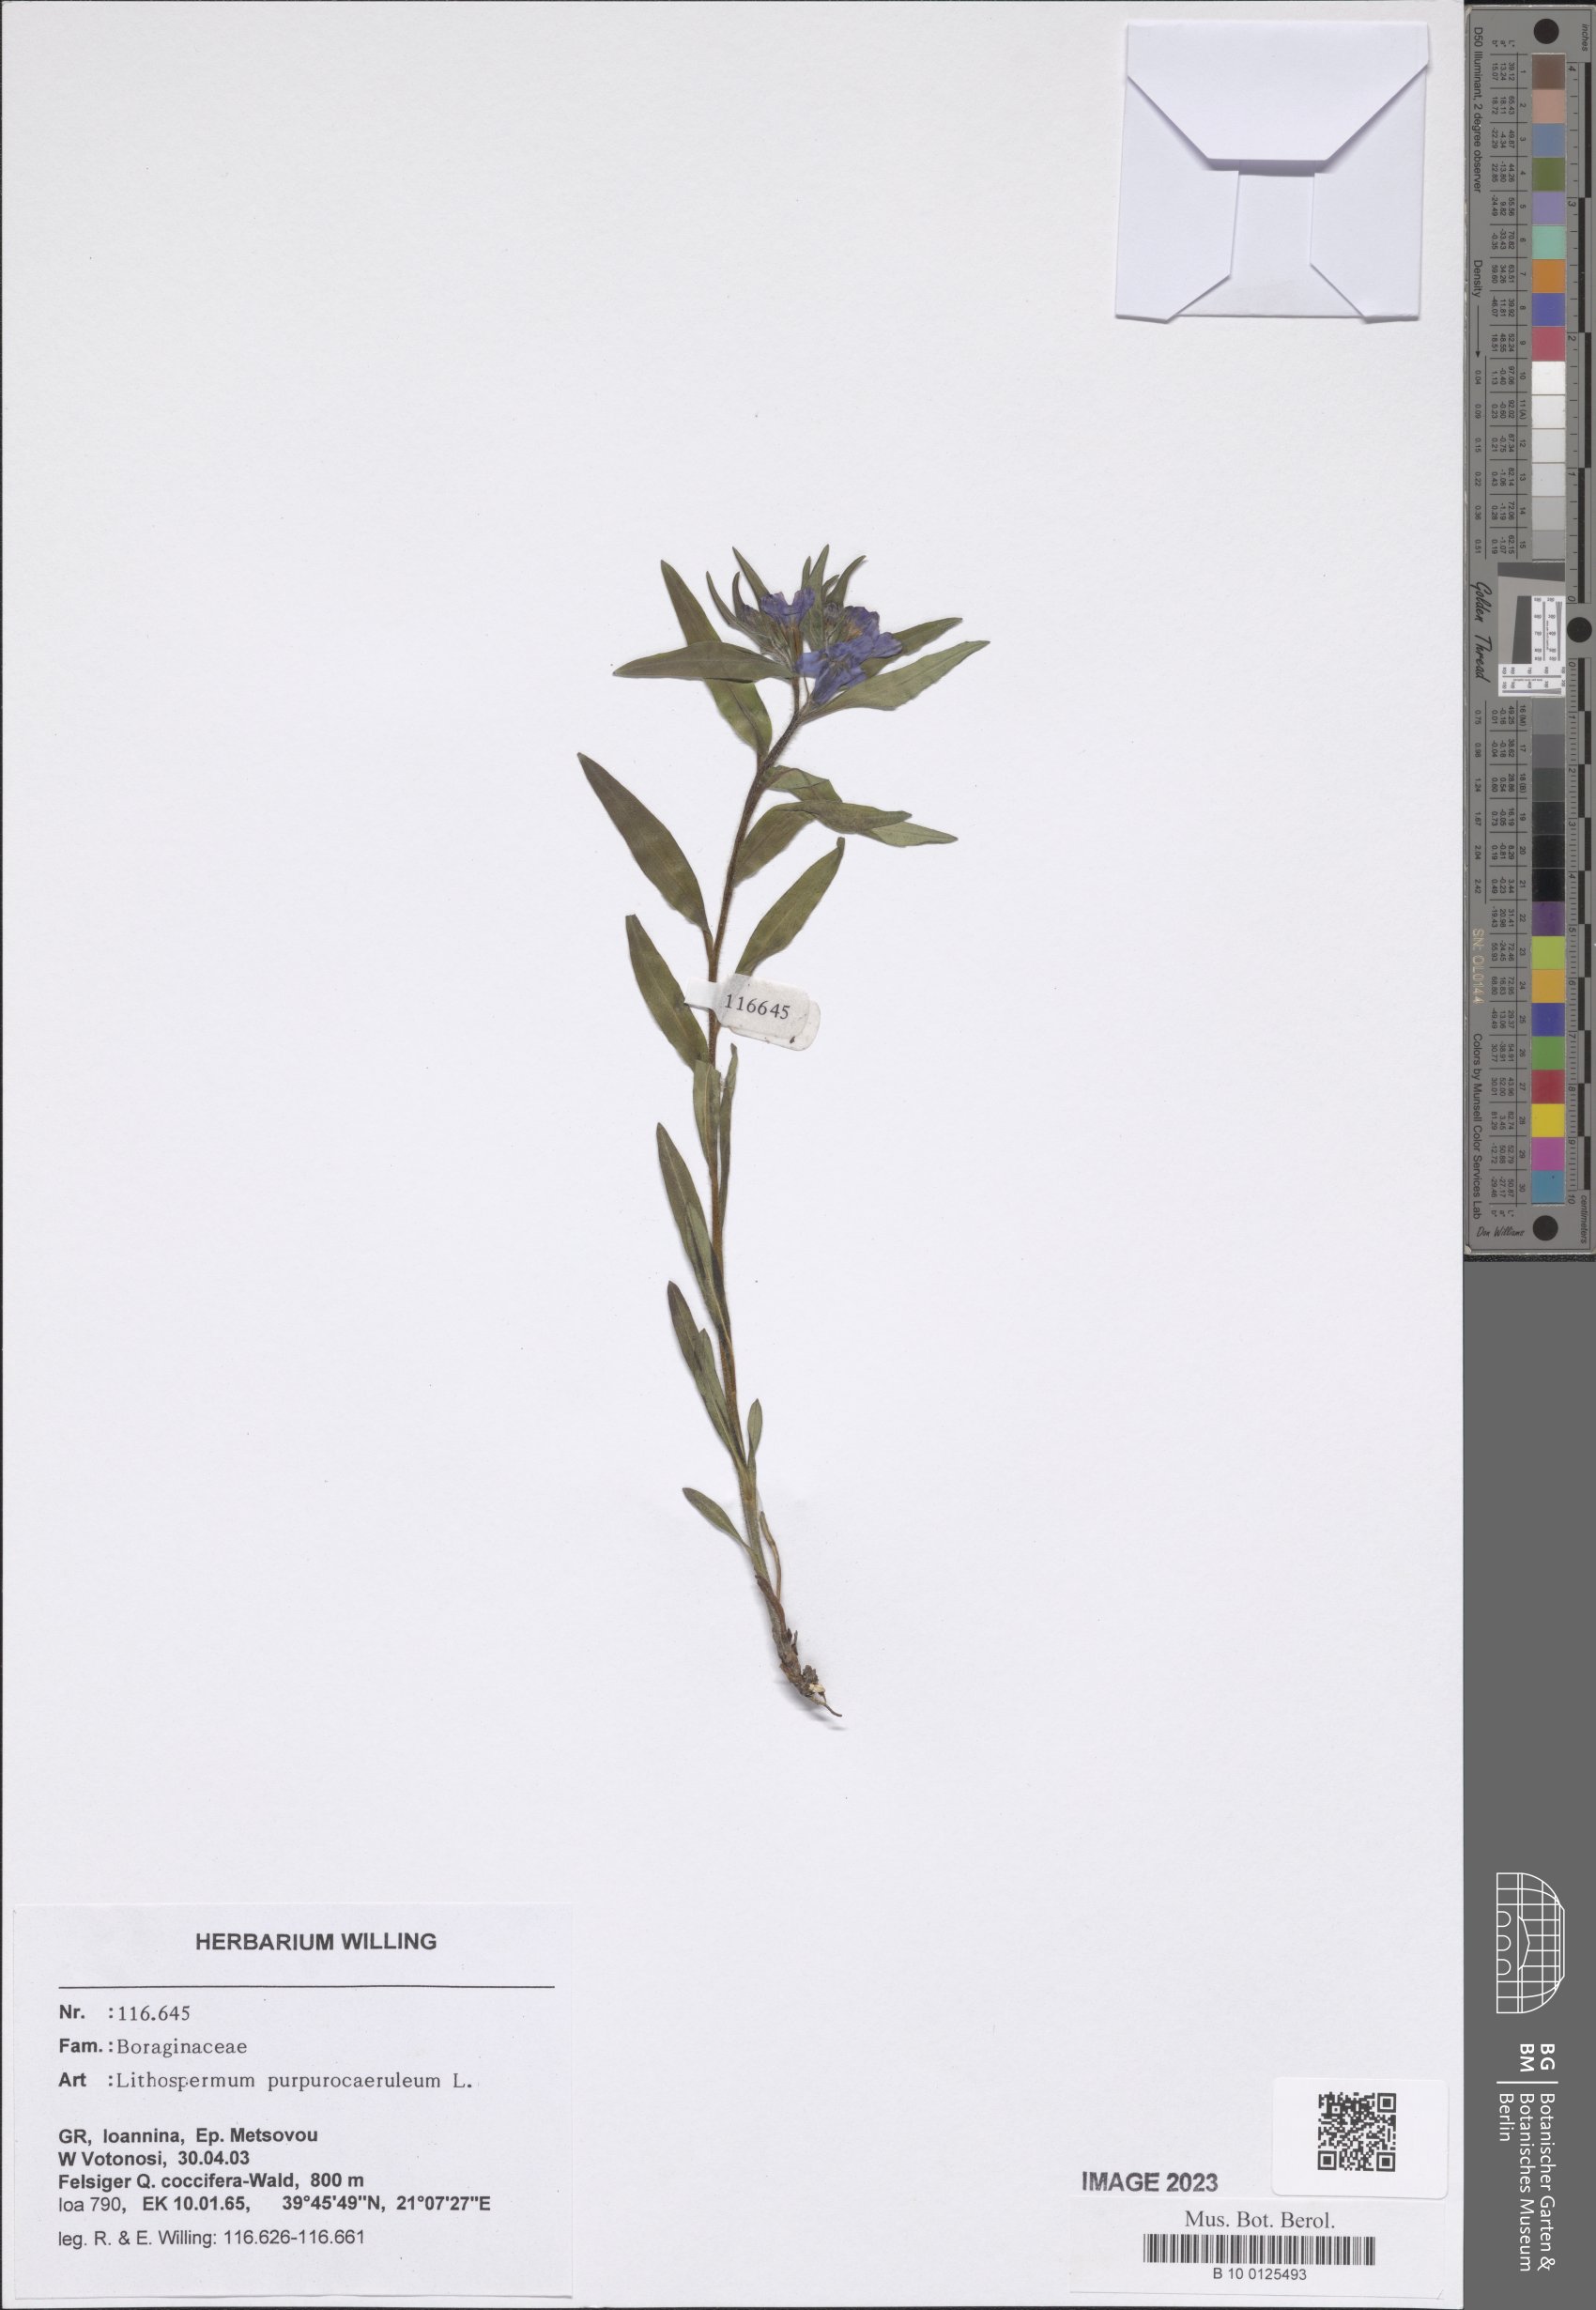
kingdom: Plantae
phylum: Tracheophyta
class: Magnoliopsida
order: Boraginales
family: Boraginaceae
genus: Aegonychon
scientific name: Aegonychon purpurocaeruleum
